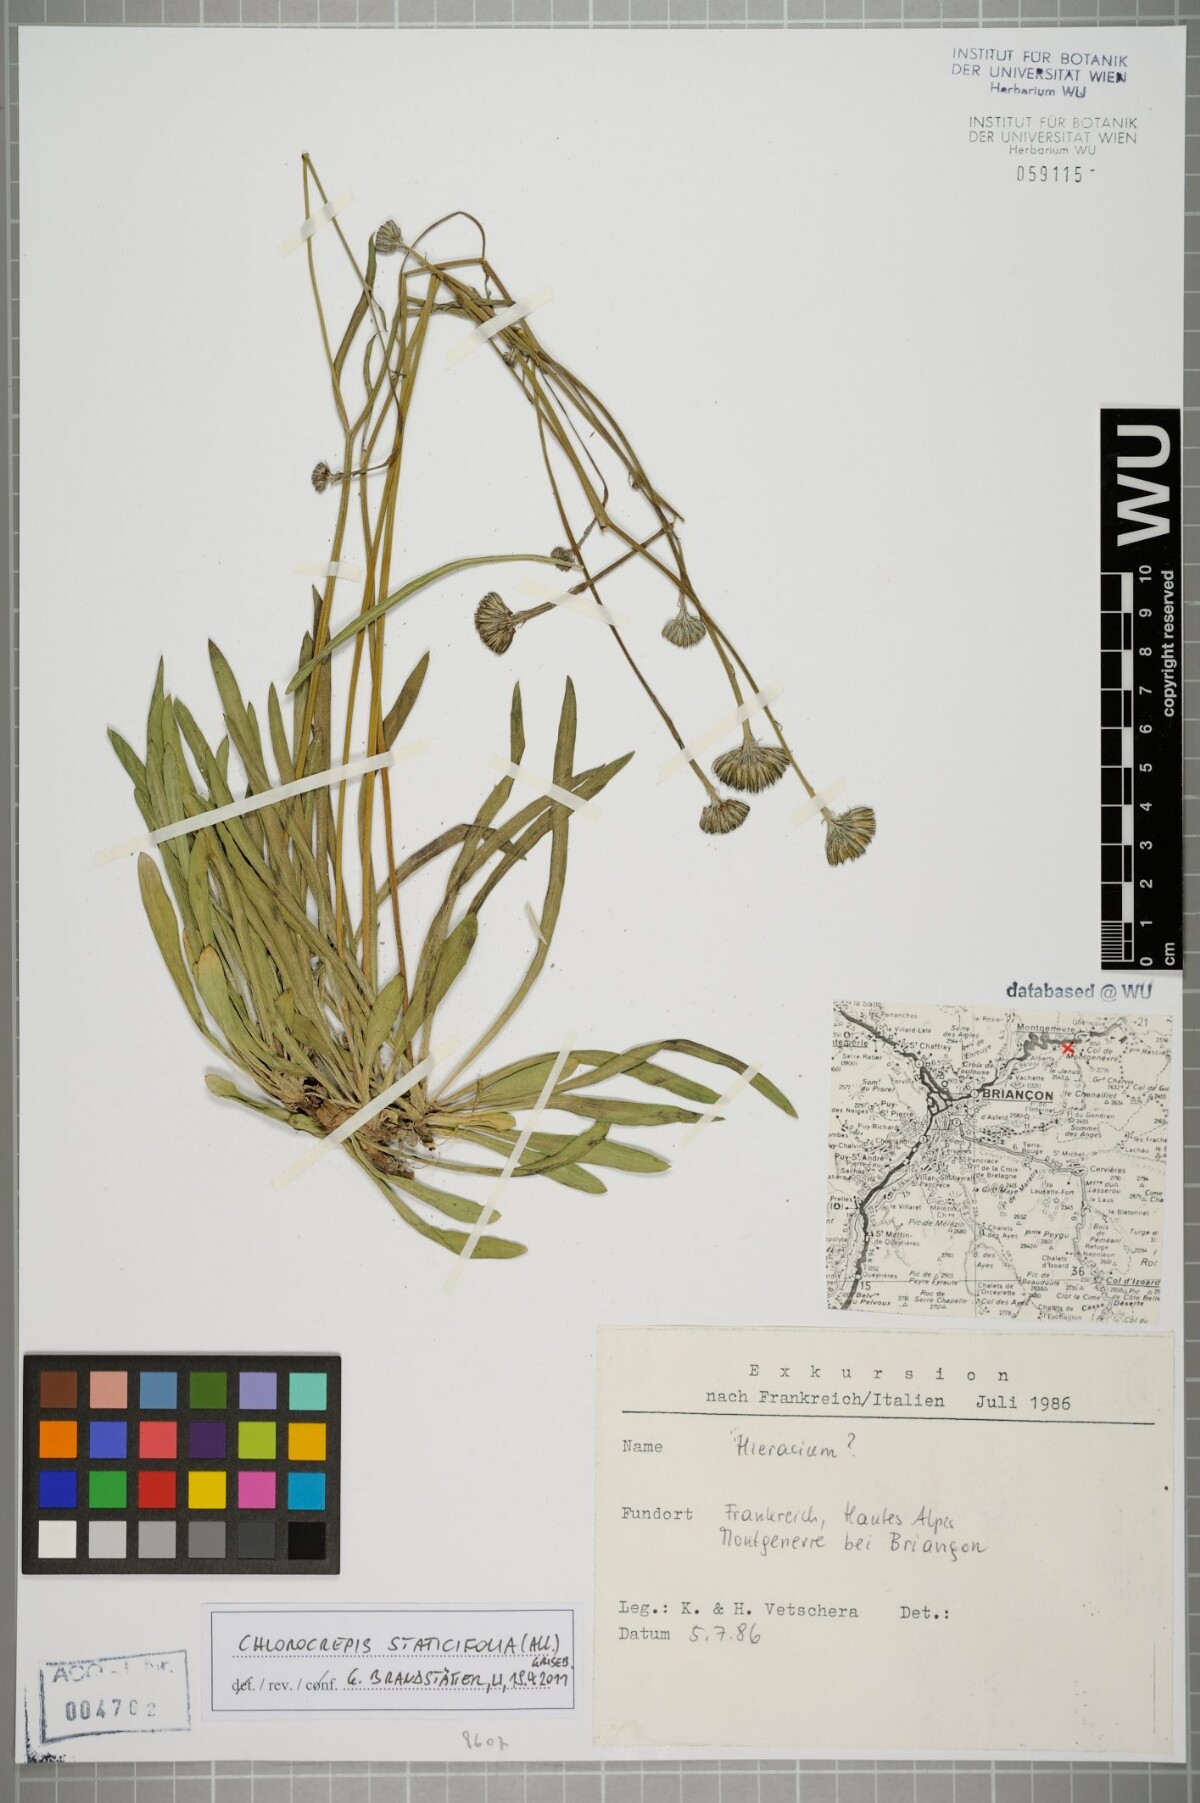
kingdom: Plantae
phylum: Tracheophyta
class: Magnoliopsida
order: Asterales
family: Asteraceae
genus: Tolpis
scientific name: Tolpis staticifolia
